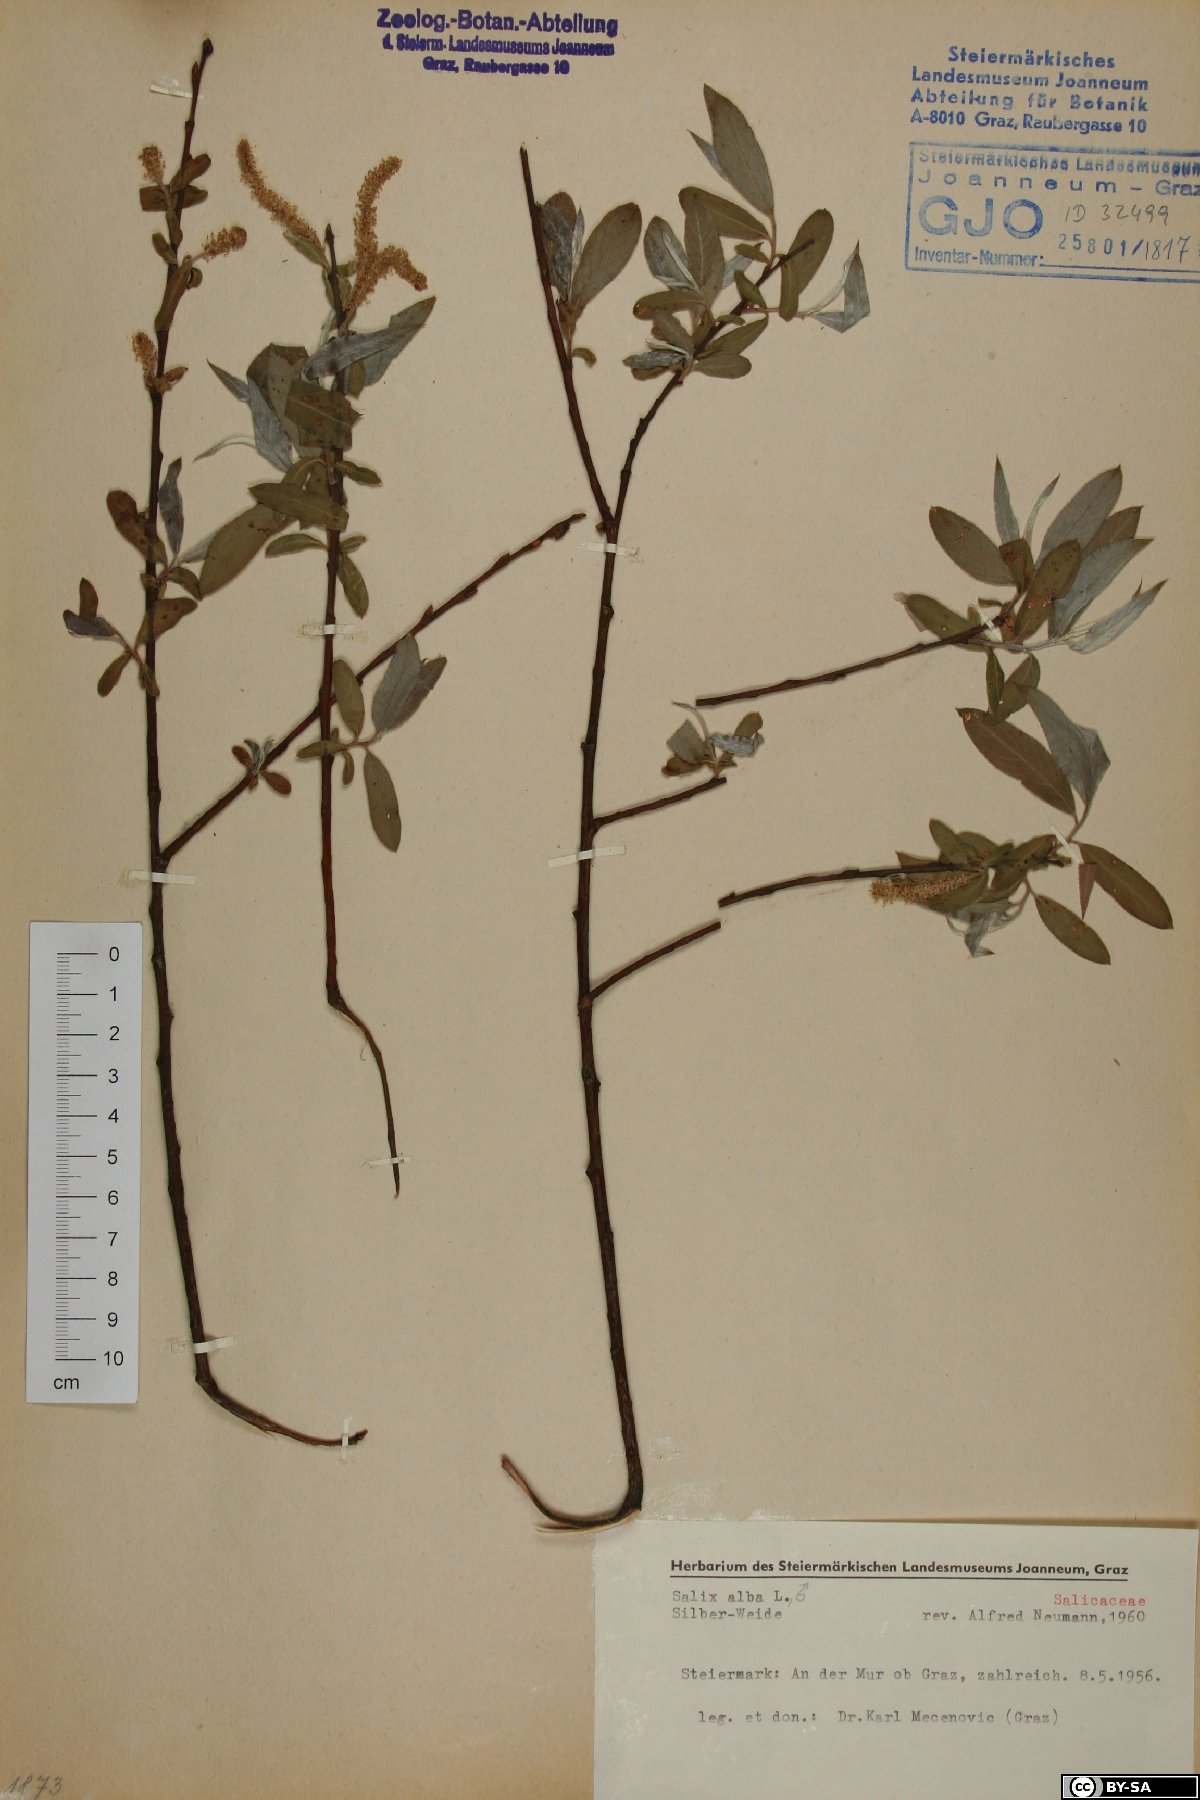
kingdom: Plantae
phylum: Tracheophyta
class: Magnoliopsida
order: Malpighiales
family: Salicaceae
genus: Salix
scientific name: Salix alba
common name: White willow
